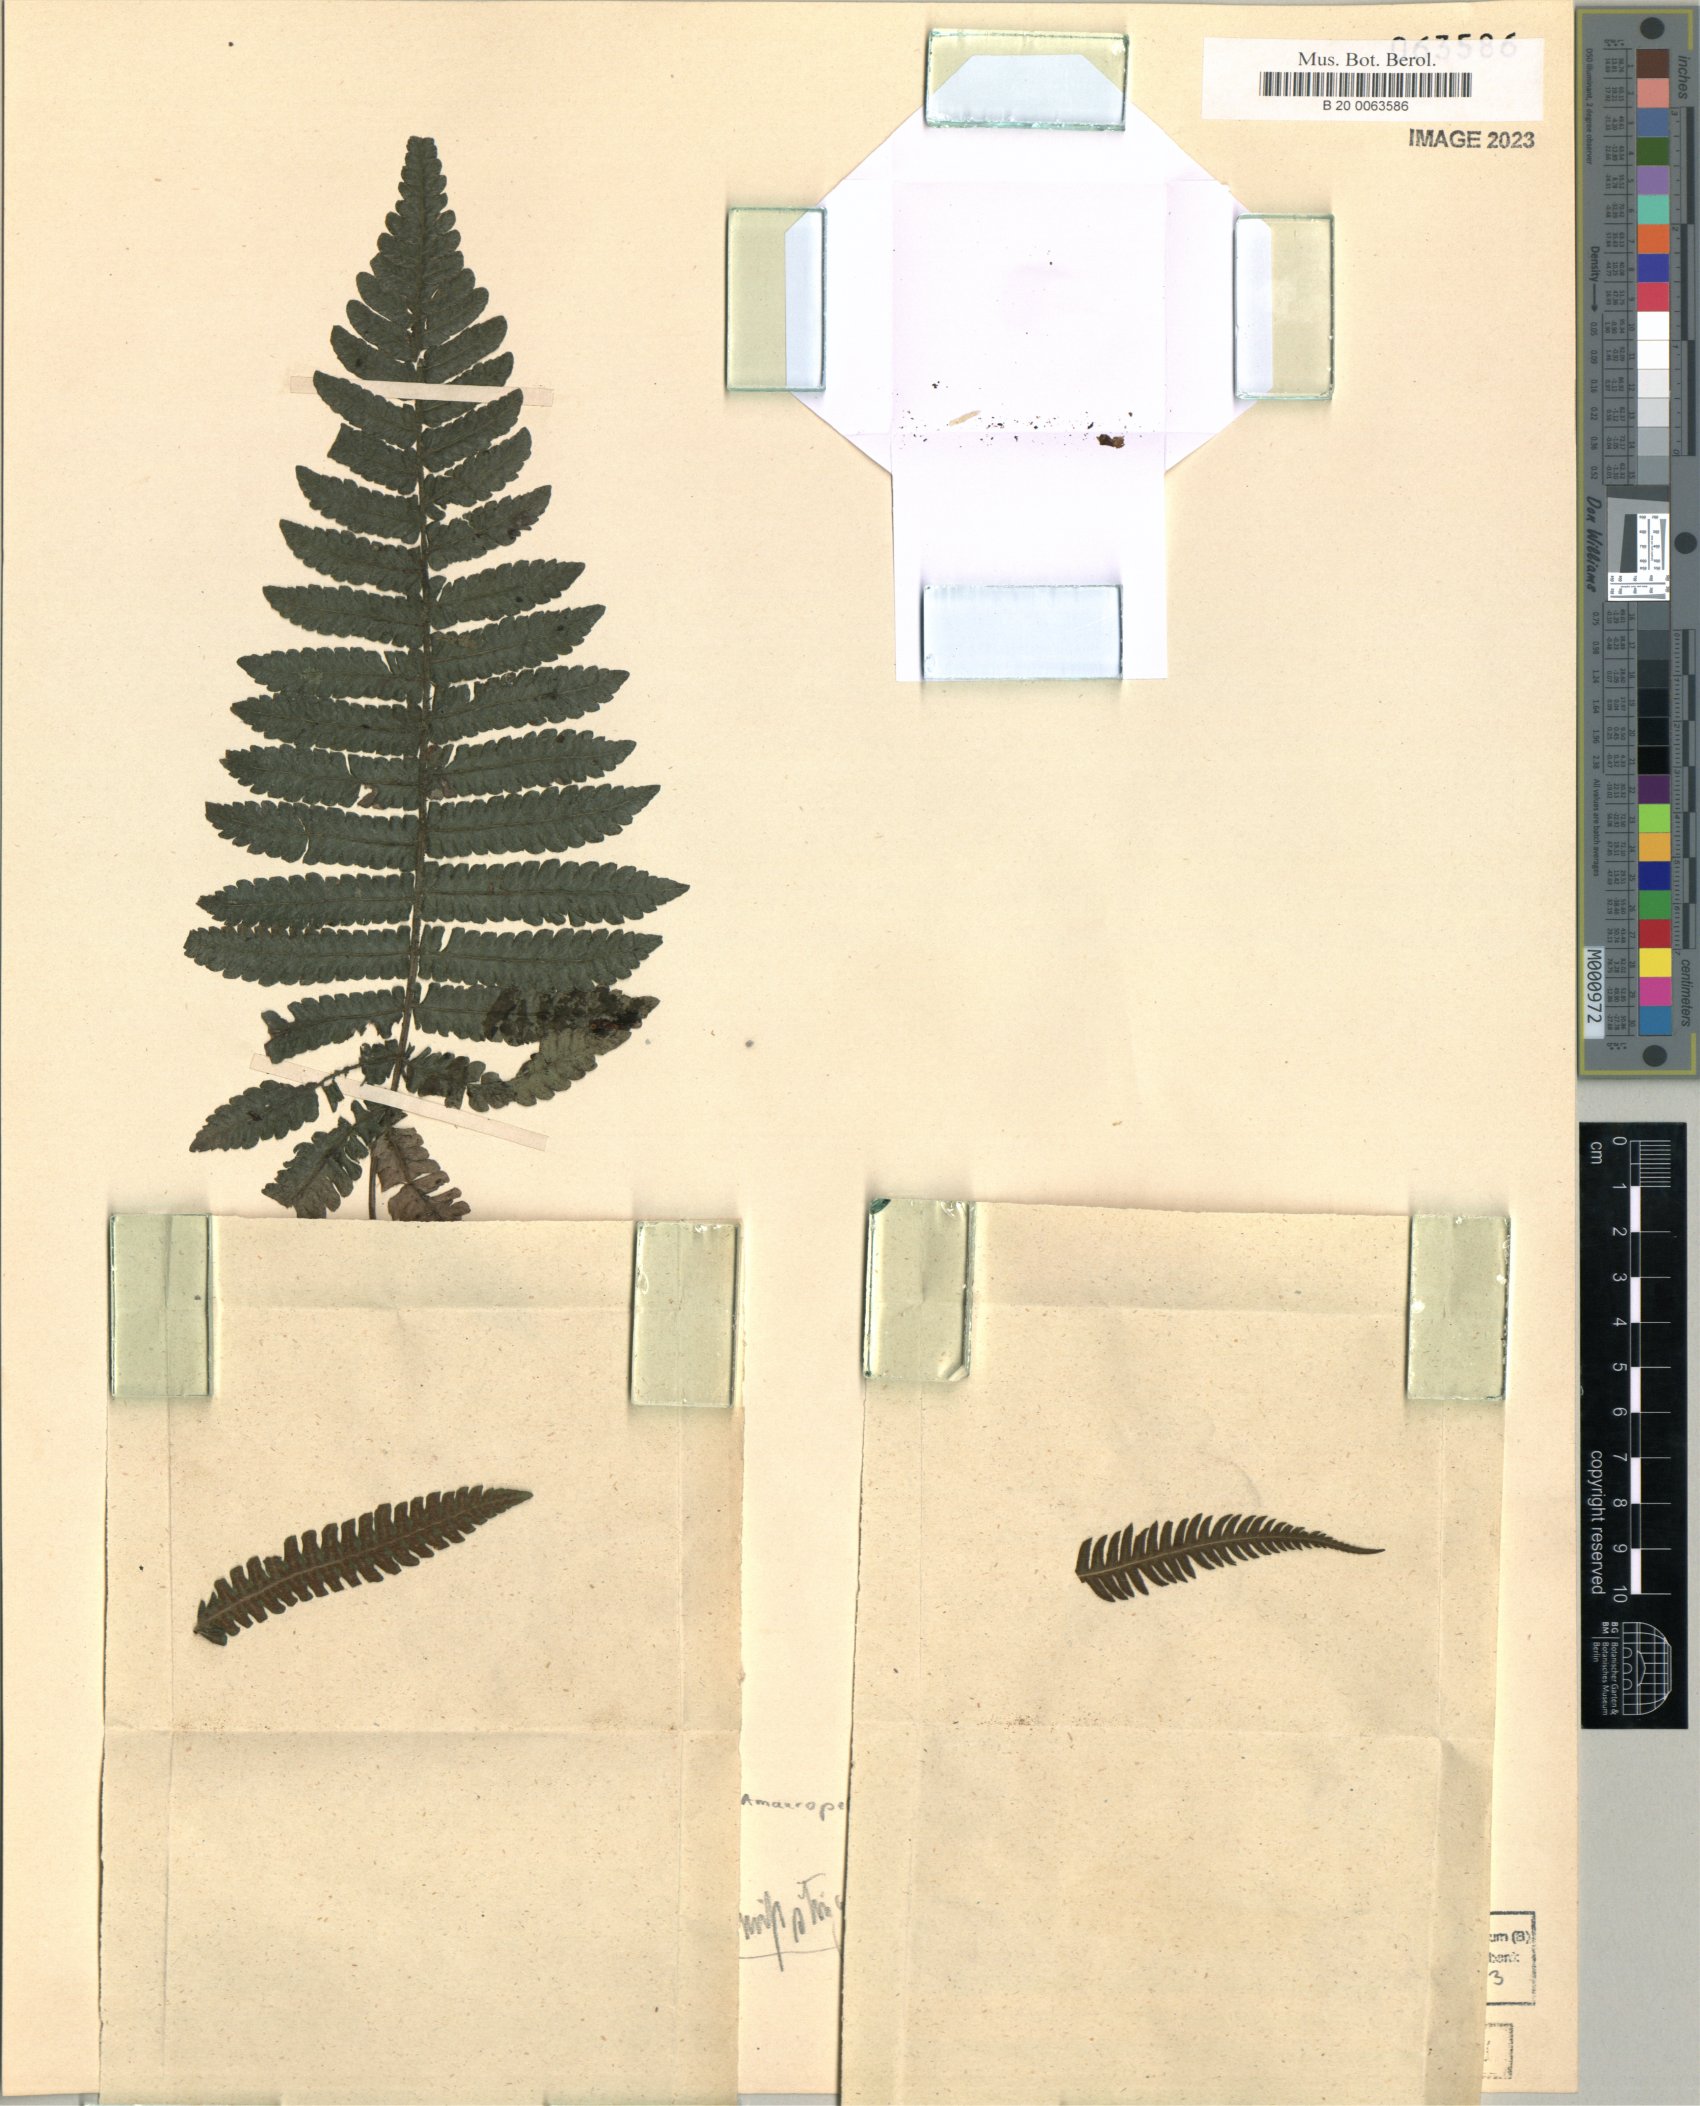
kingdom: Plantae
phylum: Tracheophyta
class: Polypodiopsida
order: Polypodiales
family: Thelypteridaceae
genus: Amauropelta
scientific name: Amauropelta pilosula
